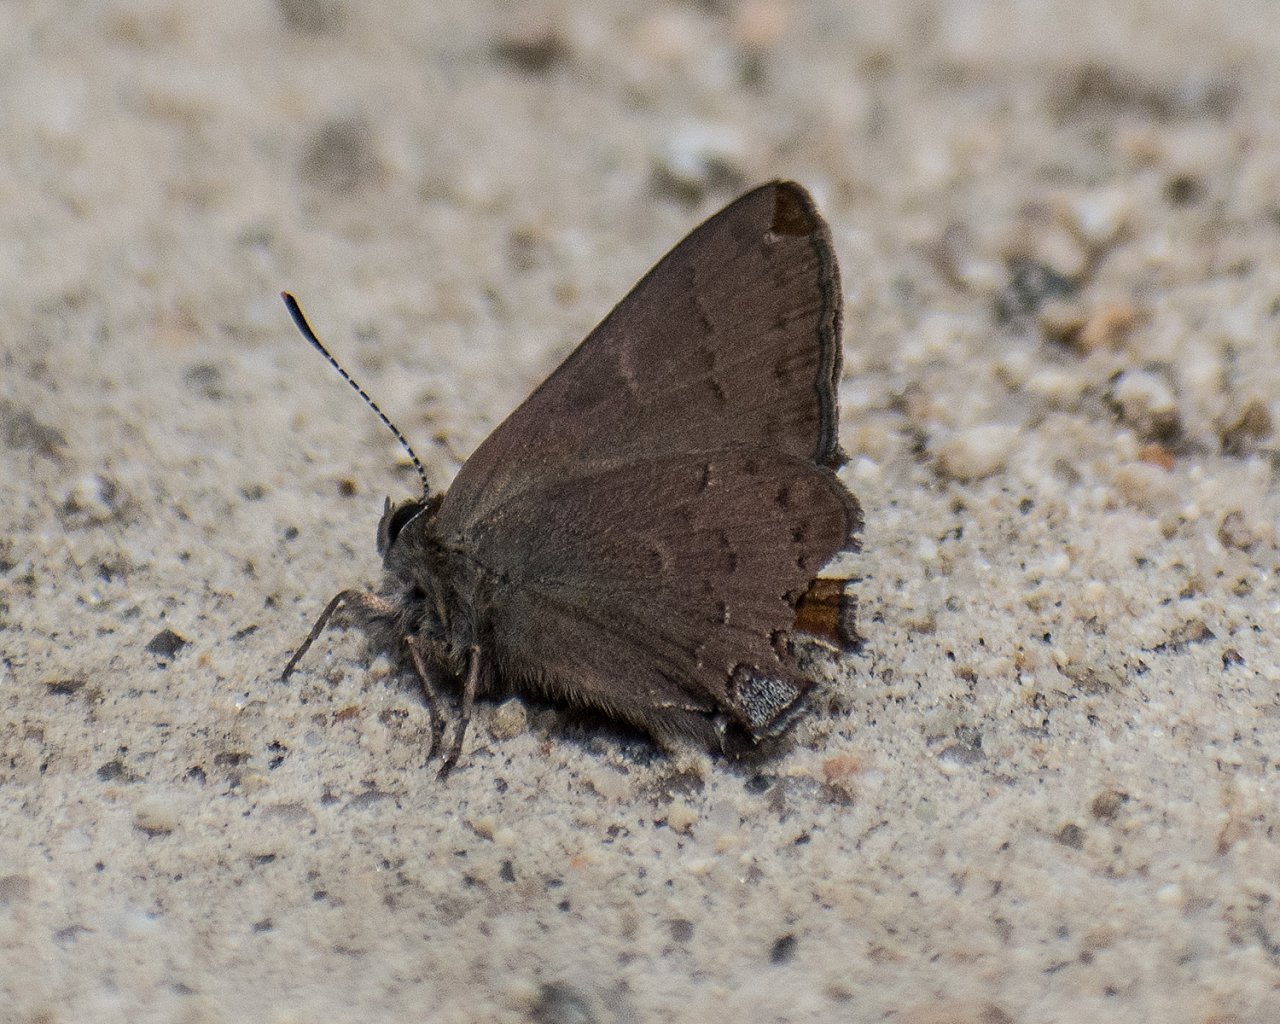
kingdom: Animalia
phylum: Arthropoda
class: Insecta
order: Lepidoptera
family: Lycaenidae
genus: Strymon
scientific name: Strymon saepium
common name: Hedgerow Hairstreak
